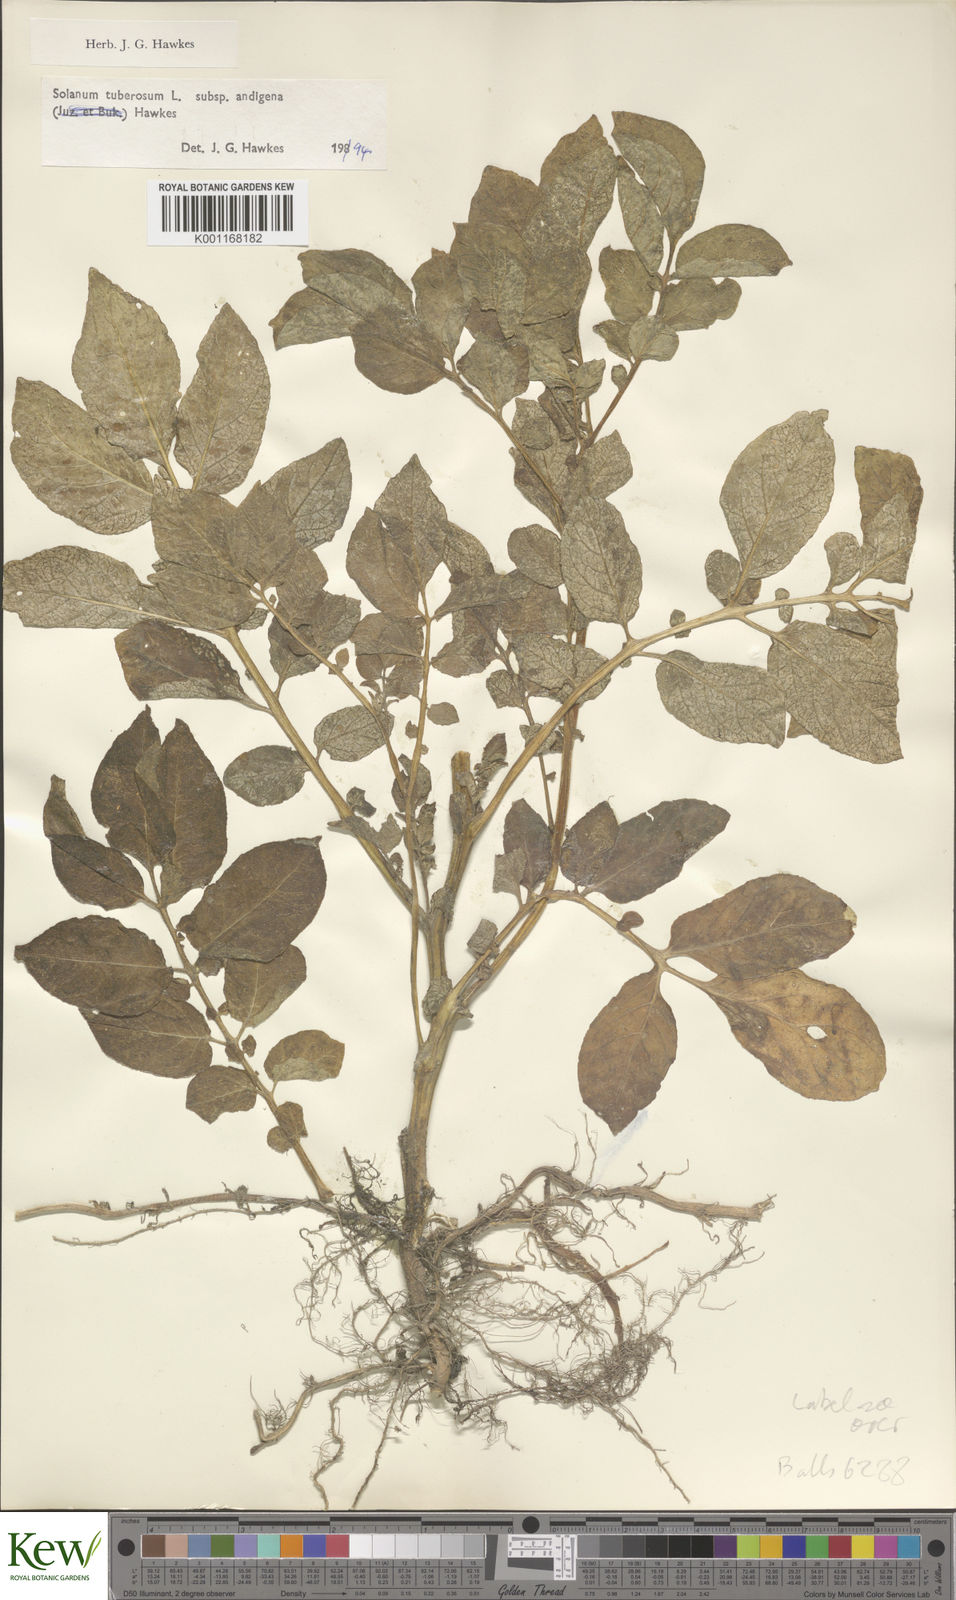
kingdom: Plantae
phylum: Tracheophyta
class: Magnoliopsida
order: Solanales
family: Solanaceae
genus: Solanum
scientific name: Solanum tuberosum
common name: Potato
